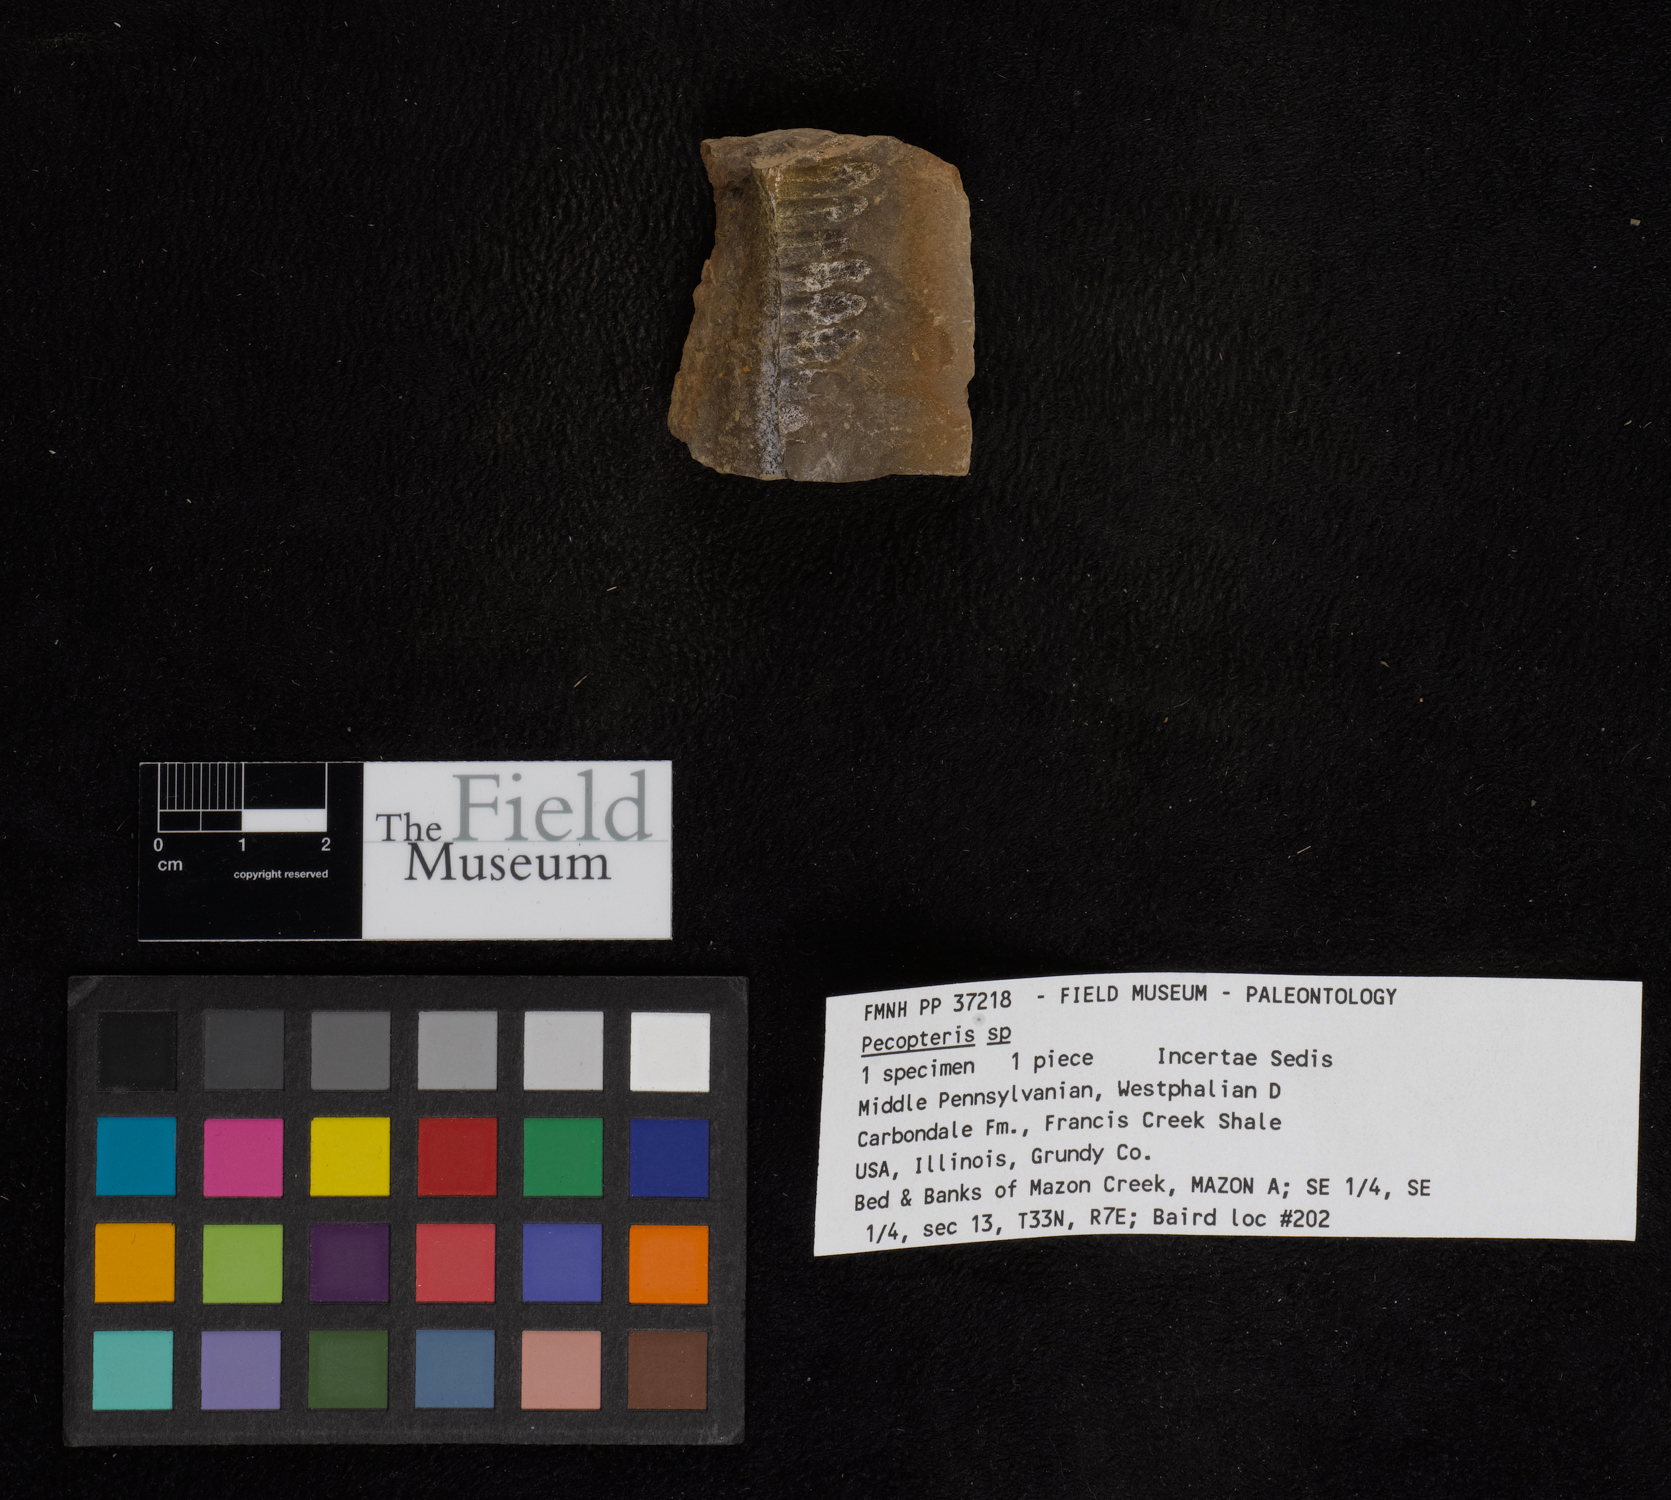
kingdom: Plantae
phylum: Tracheophyta
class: Polypodiopsida
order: Marattiales
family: Asterothecaceae
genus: Pecopteris
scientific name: Pecopteris
